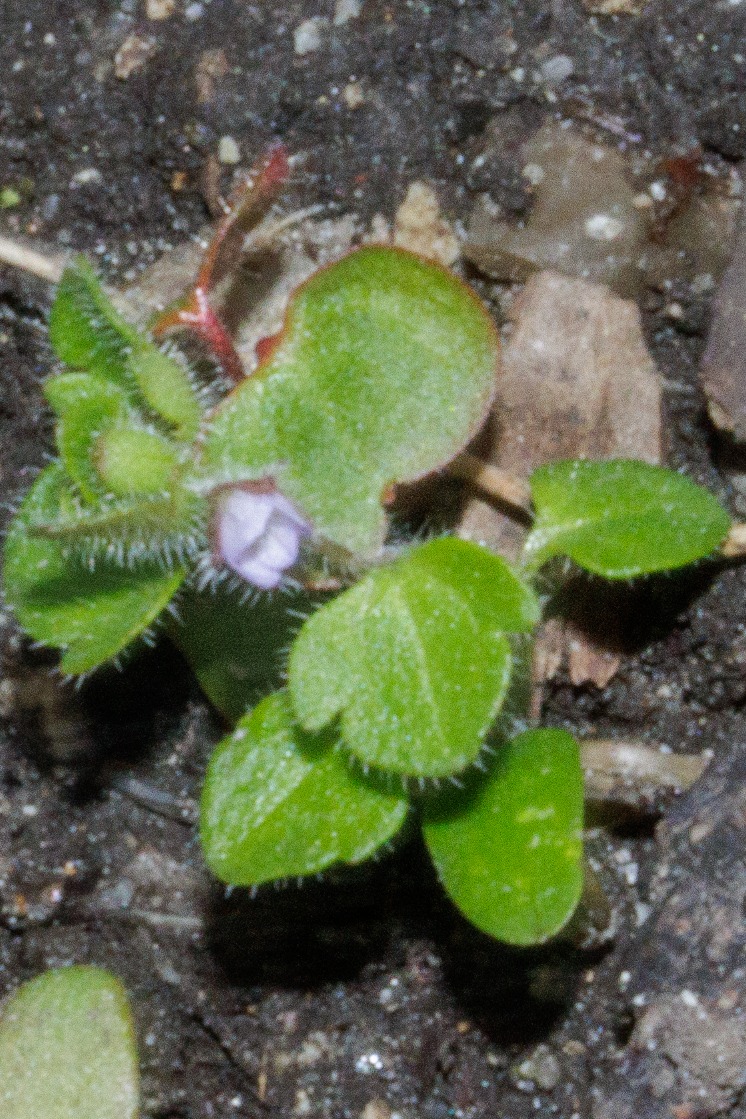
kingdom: Plantae
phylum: Tracheophyta
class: Magnoliopsida
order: Lamiales
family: Plantaginaceae
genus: Veronica
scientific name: Veronica sublobata
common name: Krat-ærenpris
